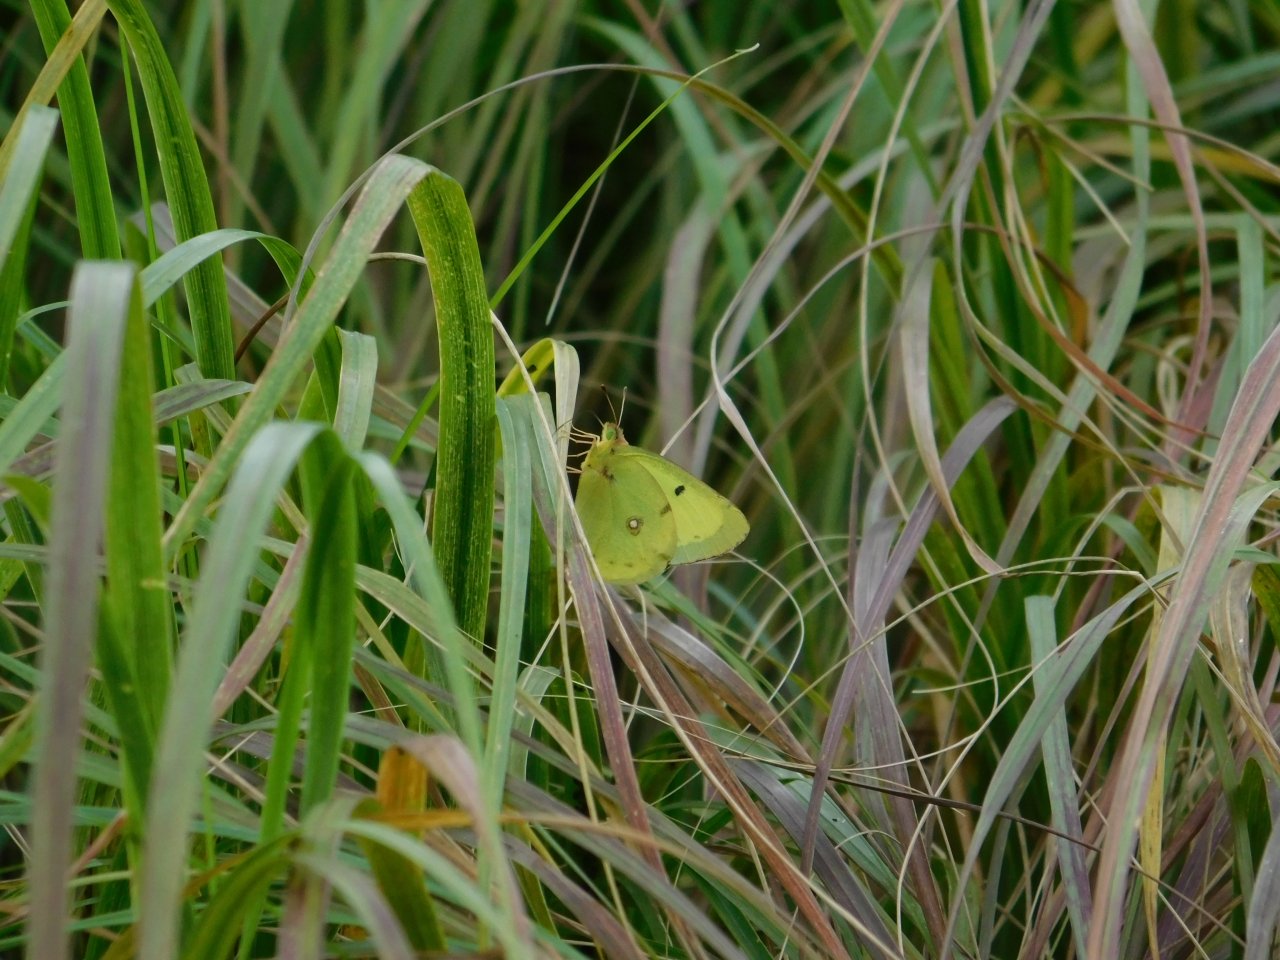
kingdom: Animalia
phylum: Arthropoda
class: Insecta
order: Lepidoptera
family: Pieridae
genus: Colias
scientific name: Colias philodice
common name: Clouded Sulphur
